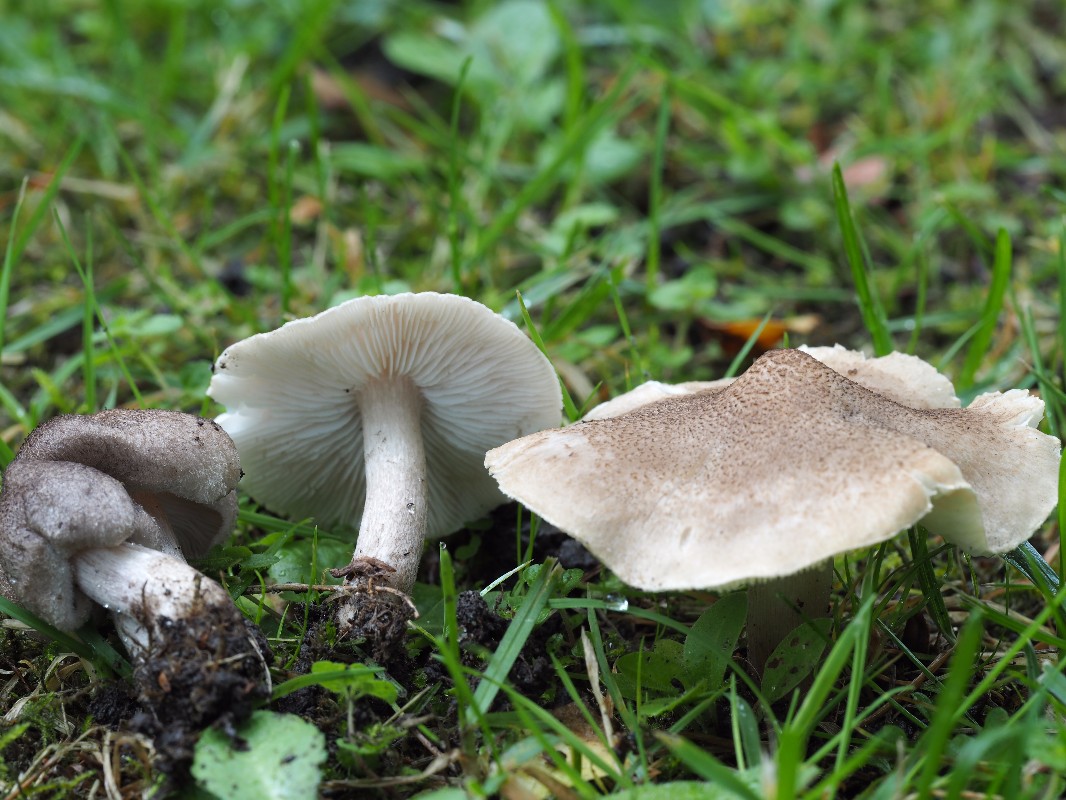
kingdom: Fungi
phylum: Basidiomycota
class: Agaricomycetes
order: Agaricales
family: Tricholomataceae
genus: Tricholoma
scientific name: Tricholoma argyraceum
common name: spids ridderhat
